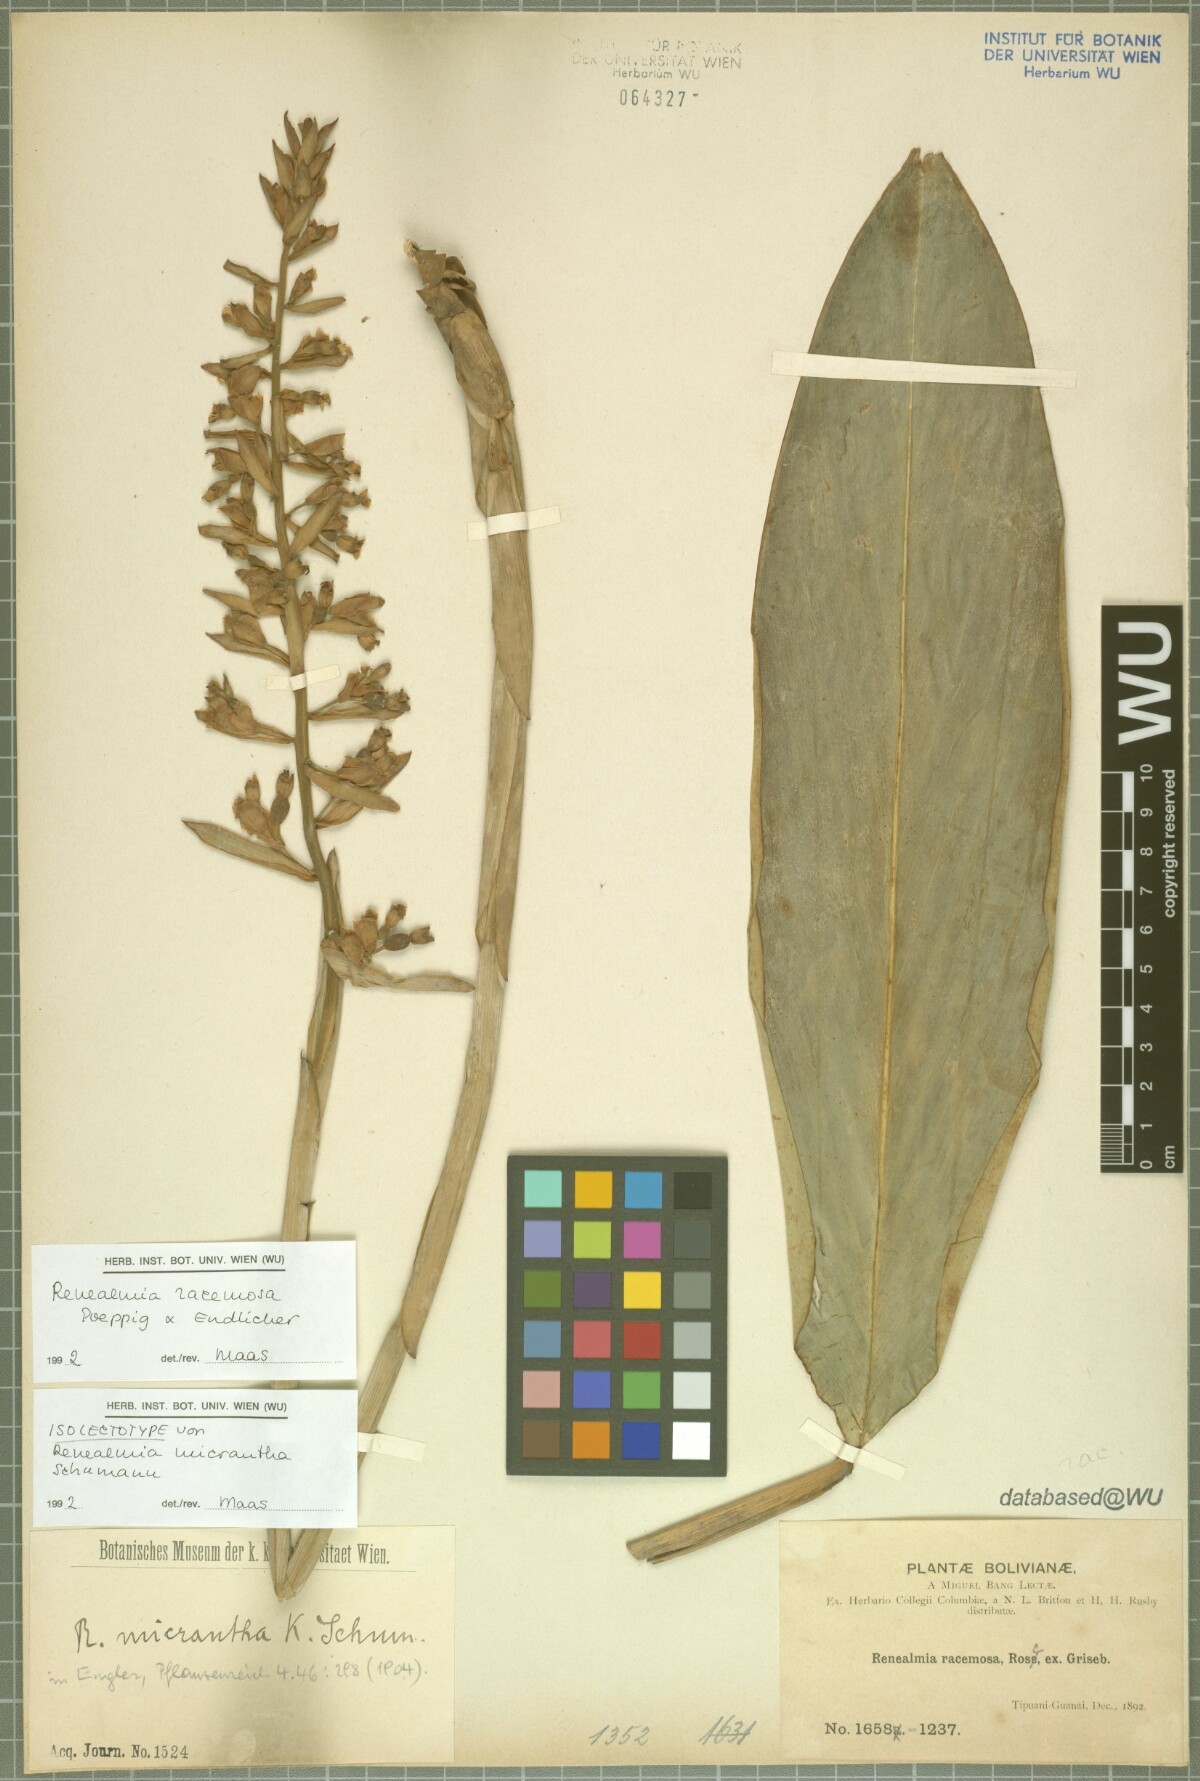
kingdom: Plantae
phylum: Tracheophyta
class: Liliopsida
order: Zingiberales
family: Zingiberaceae
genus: Renealmia
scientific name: Renealmia racemosa
